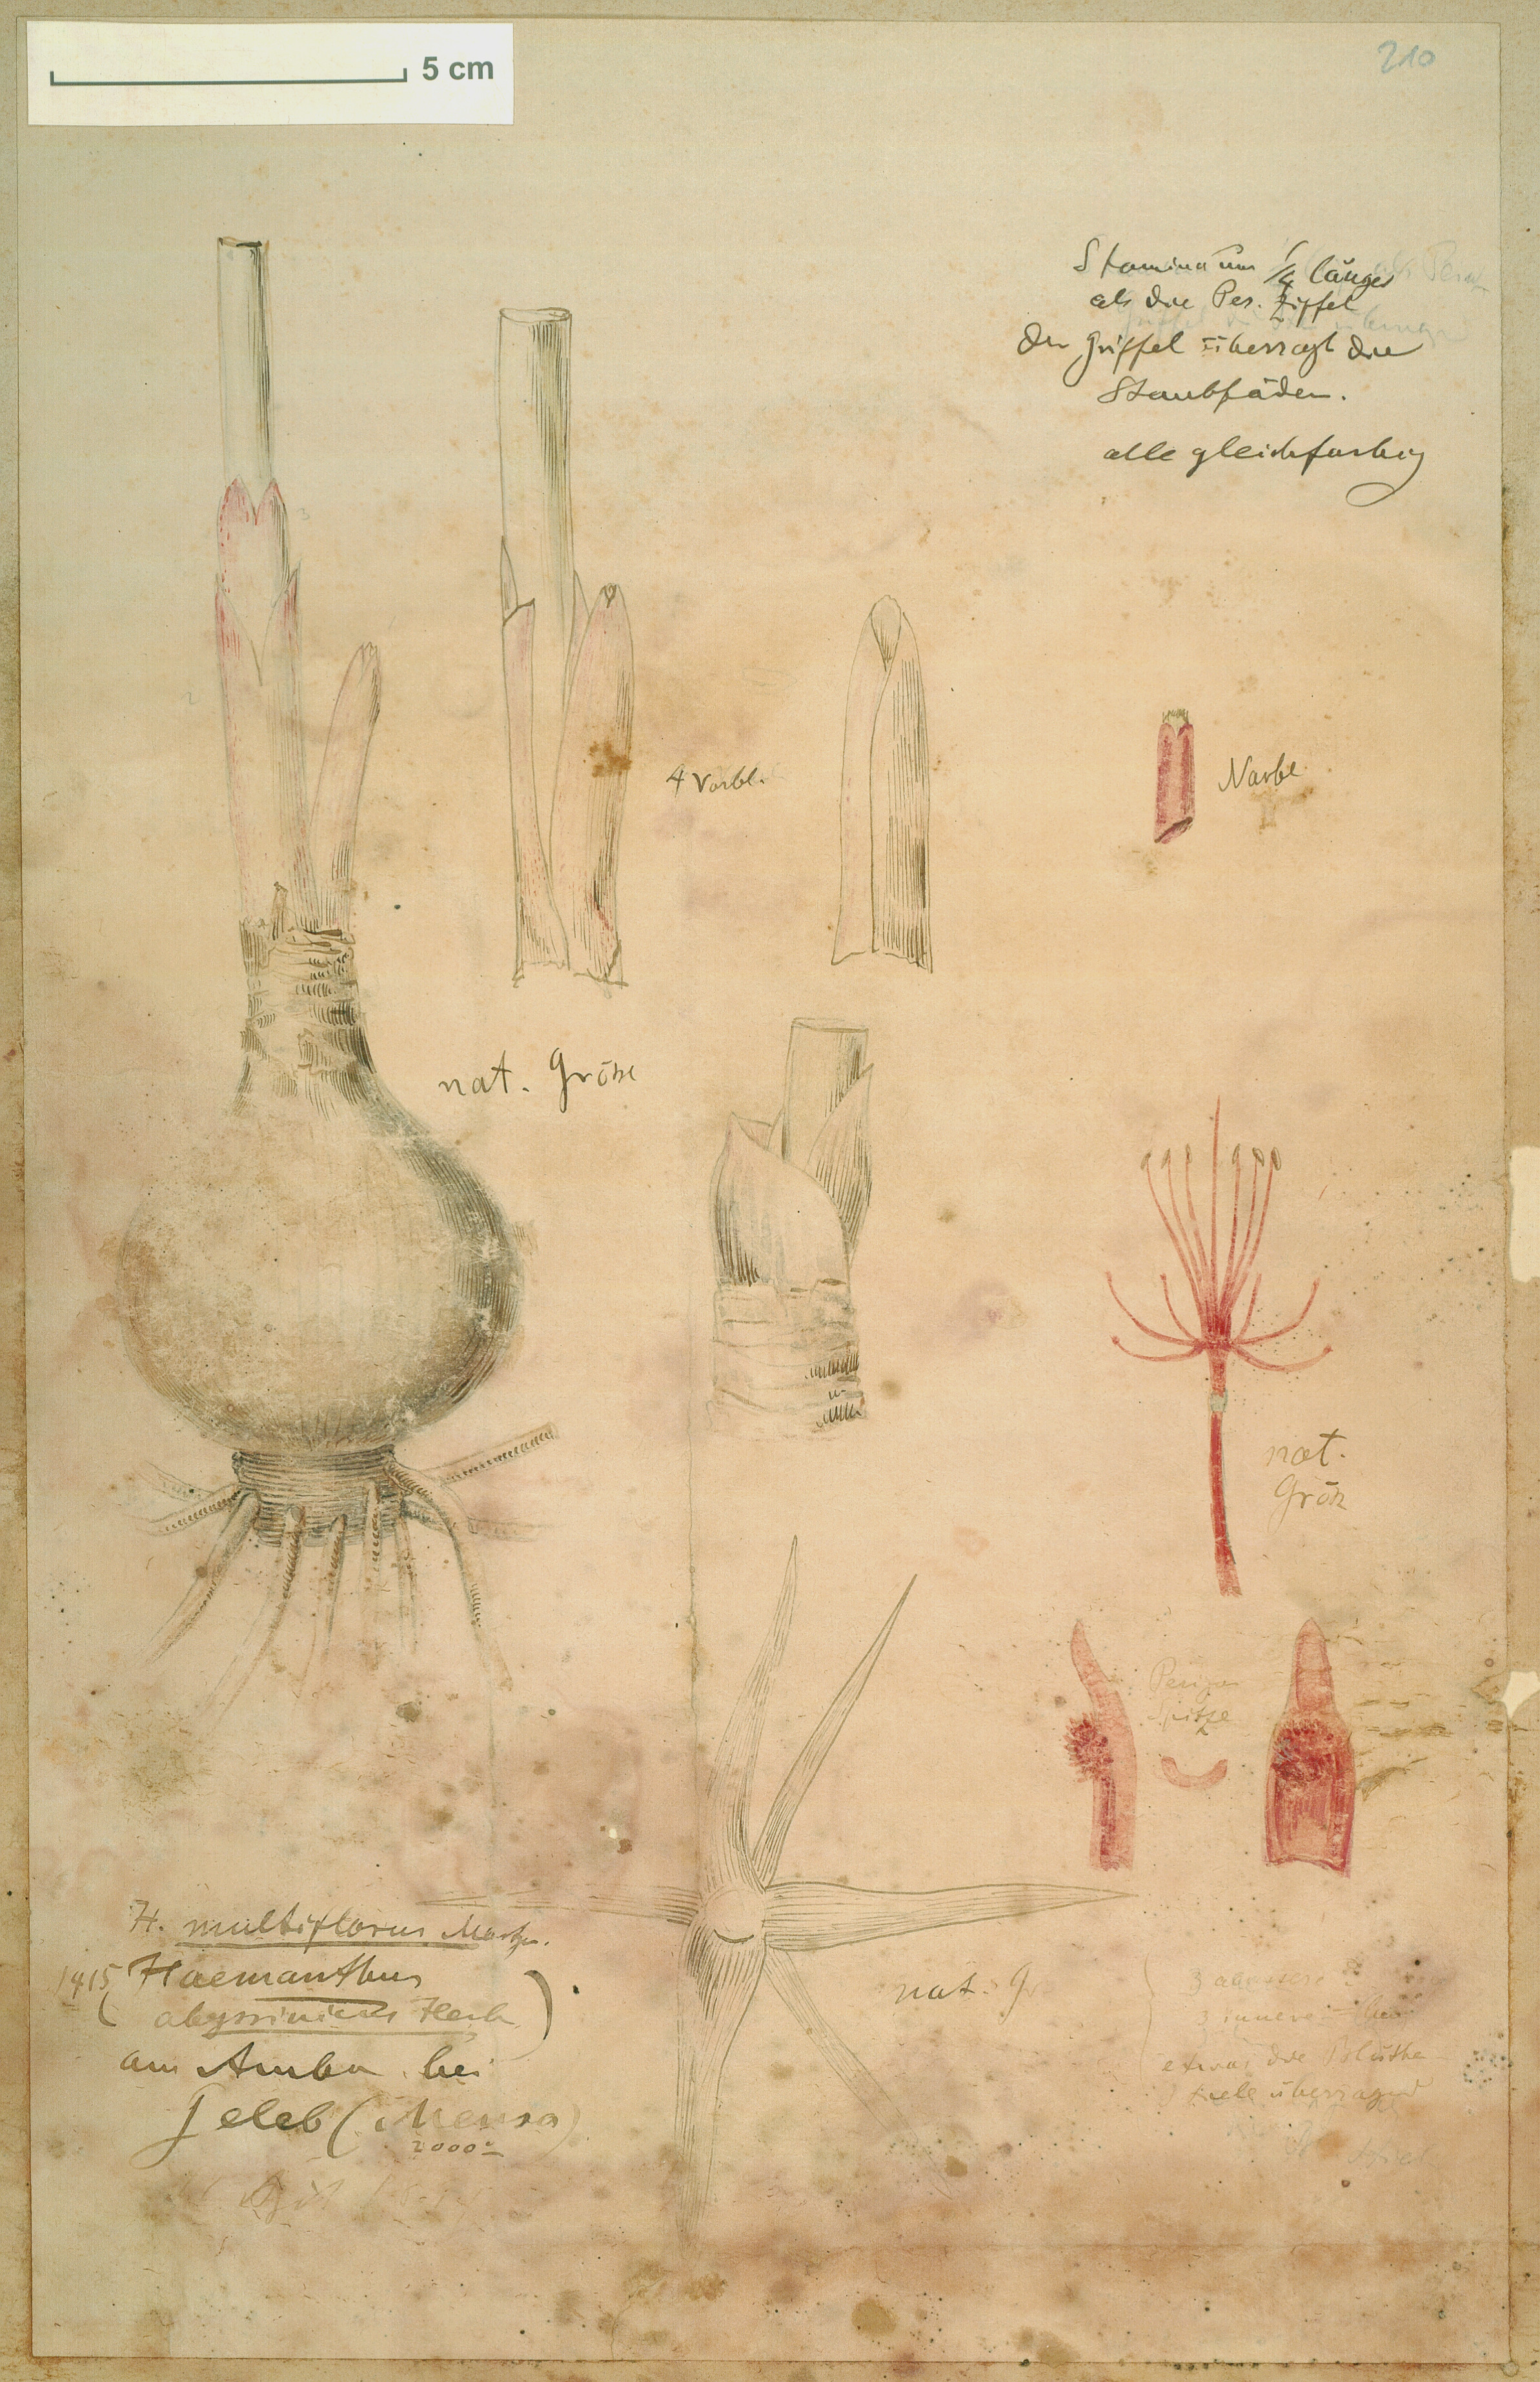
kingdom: Plantae
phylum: Tracheophyta
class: Liliopsida
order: Asparagales
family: Amaryllidaceae
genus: Scadoxus
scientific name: Scadoxus multiflorus
